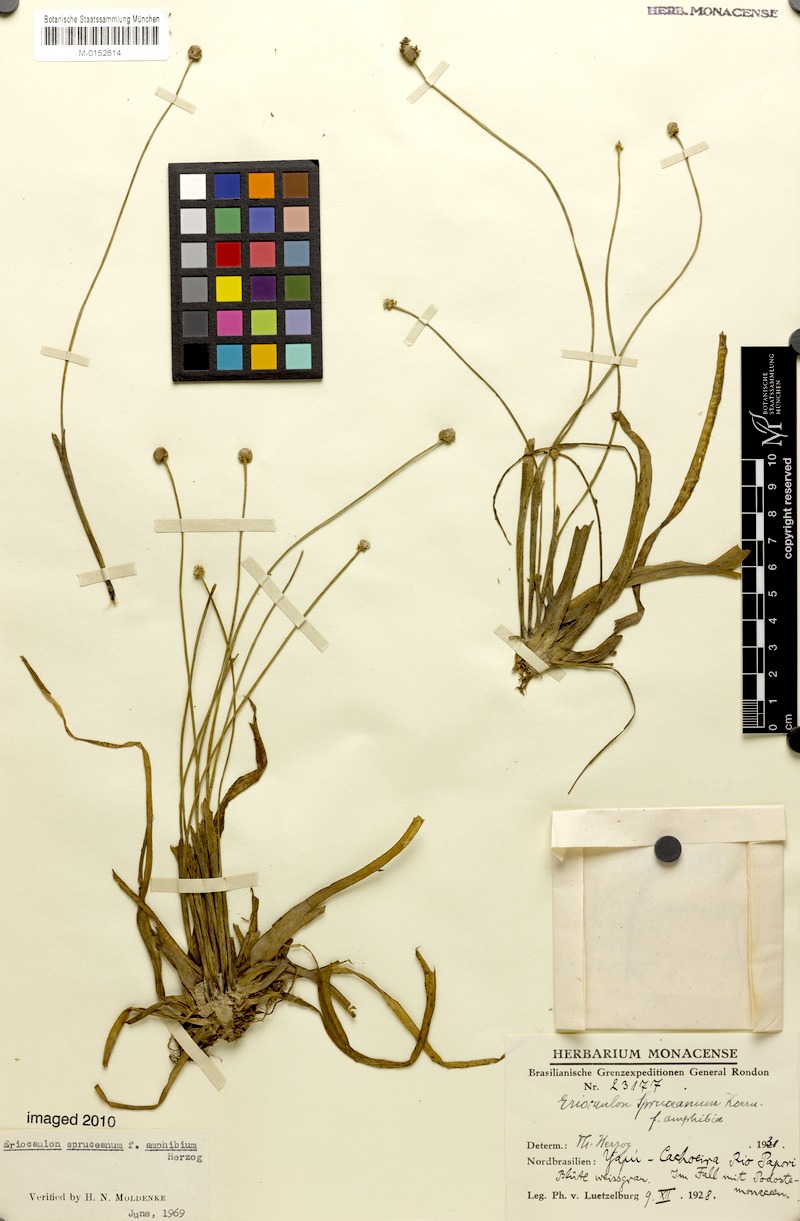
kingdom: Plantae
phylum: Tracheophyta
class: Liliopsida
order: Poales
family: Eriocaulaceae
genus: Eriocaulon
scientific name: Eriocaulon spruceanum
